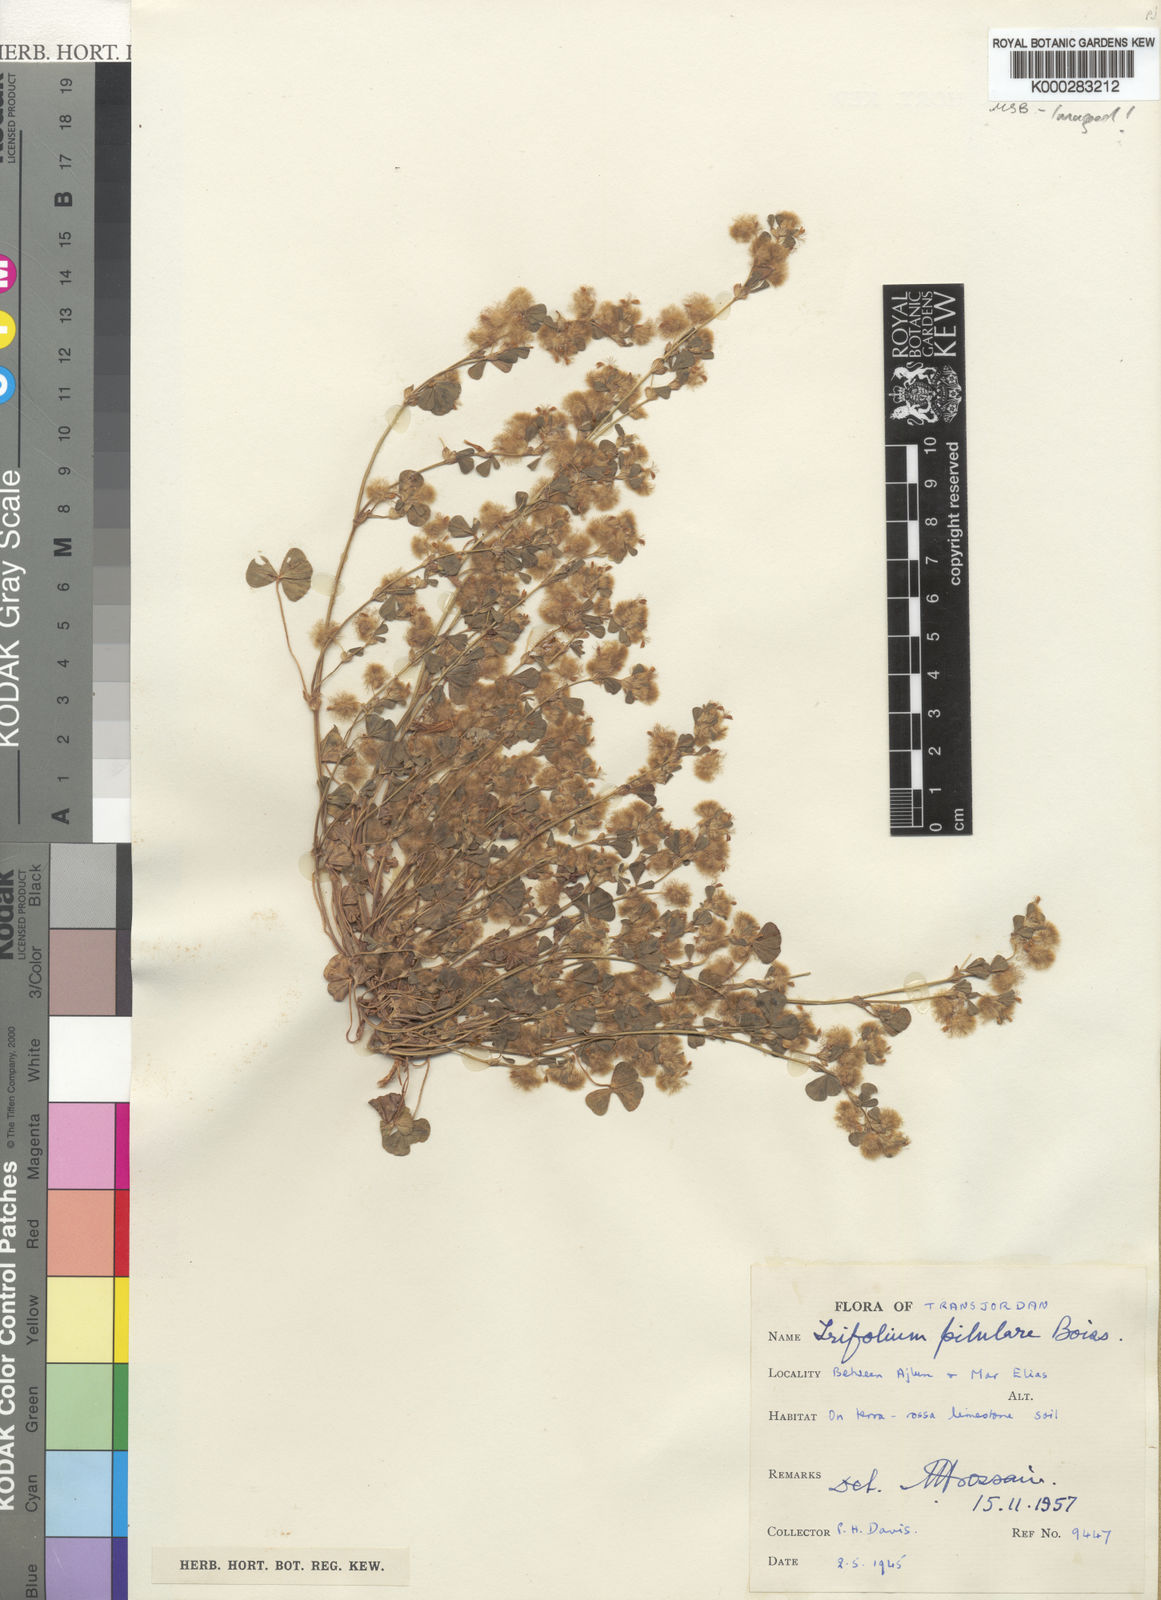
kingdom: Plantae
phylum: Tracheophyta
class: Magnoliopsida
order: Fabales
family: Fabaceae
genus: Trifolium
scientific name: Trifolium pilulare
